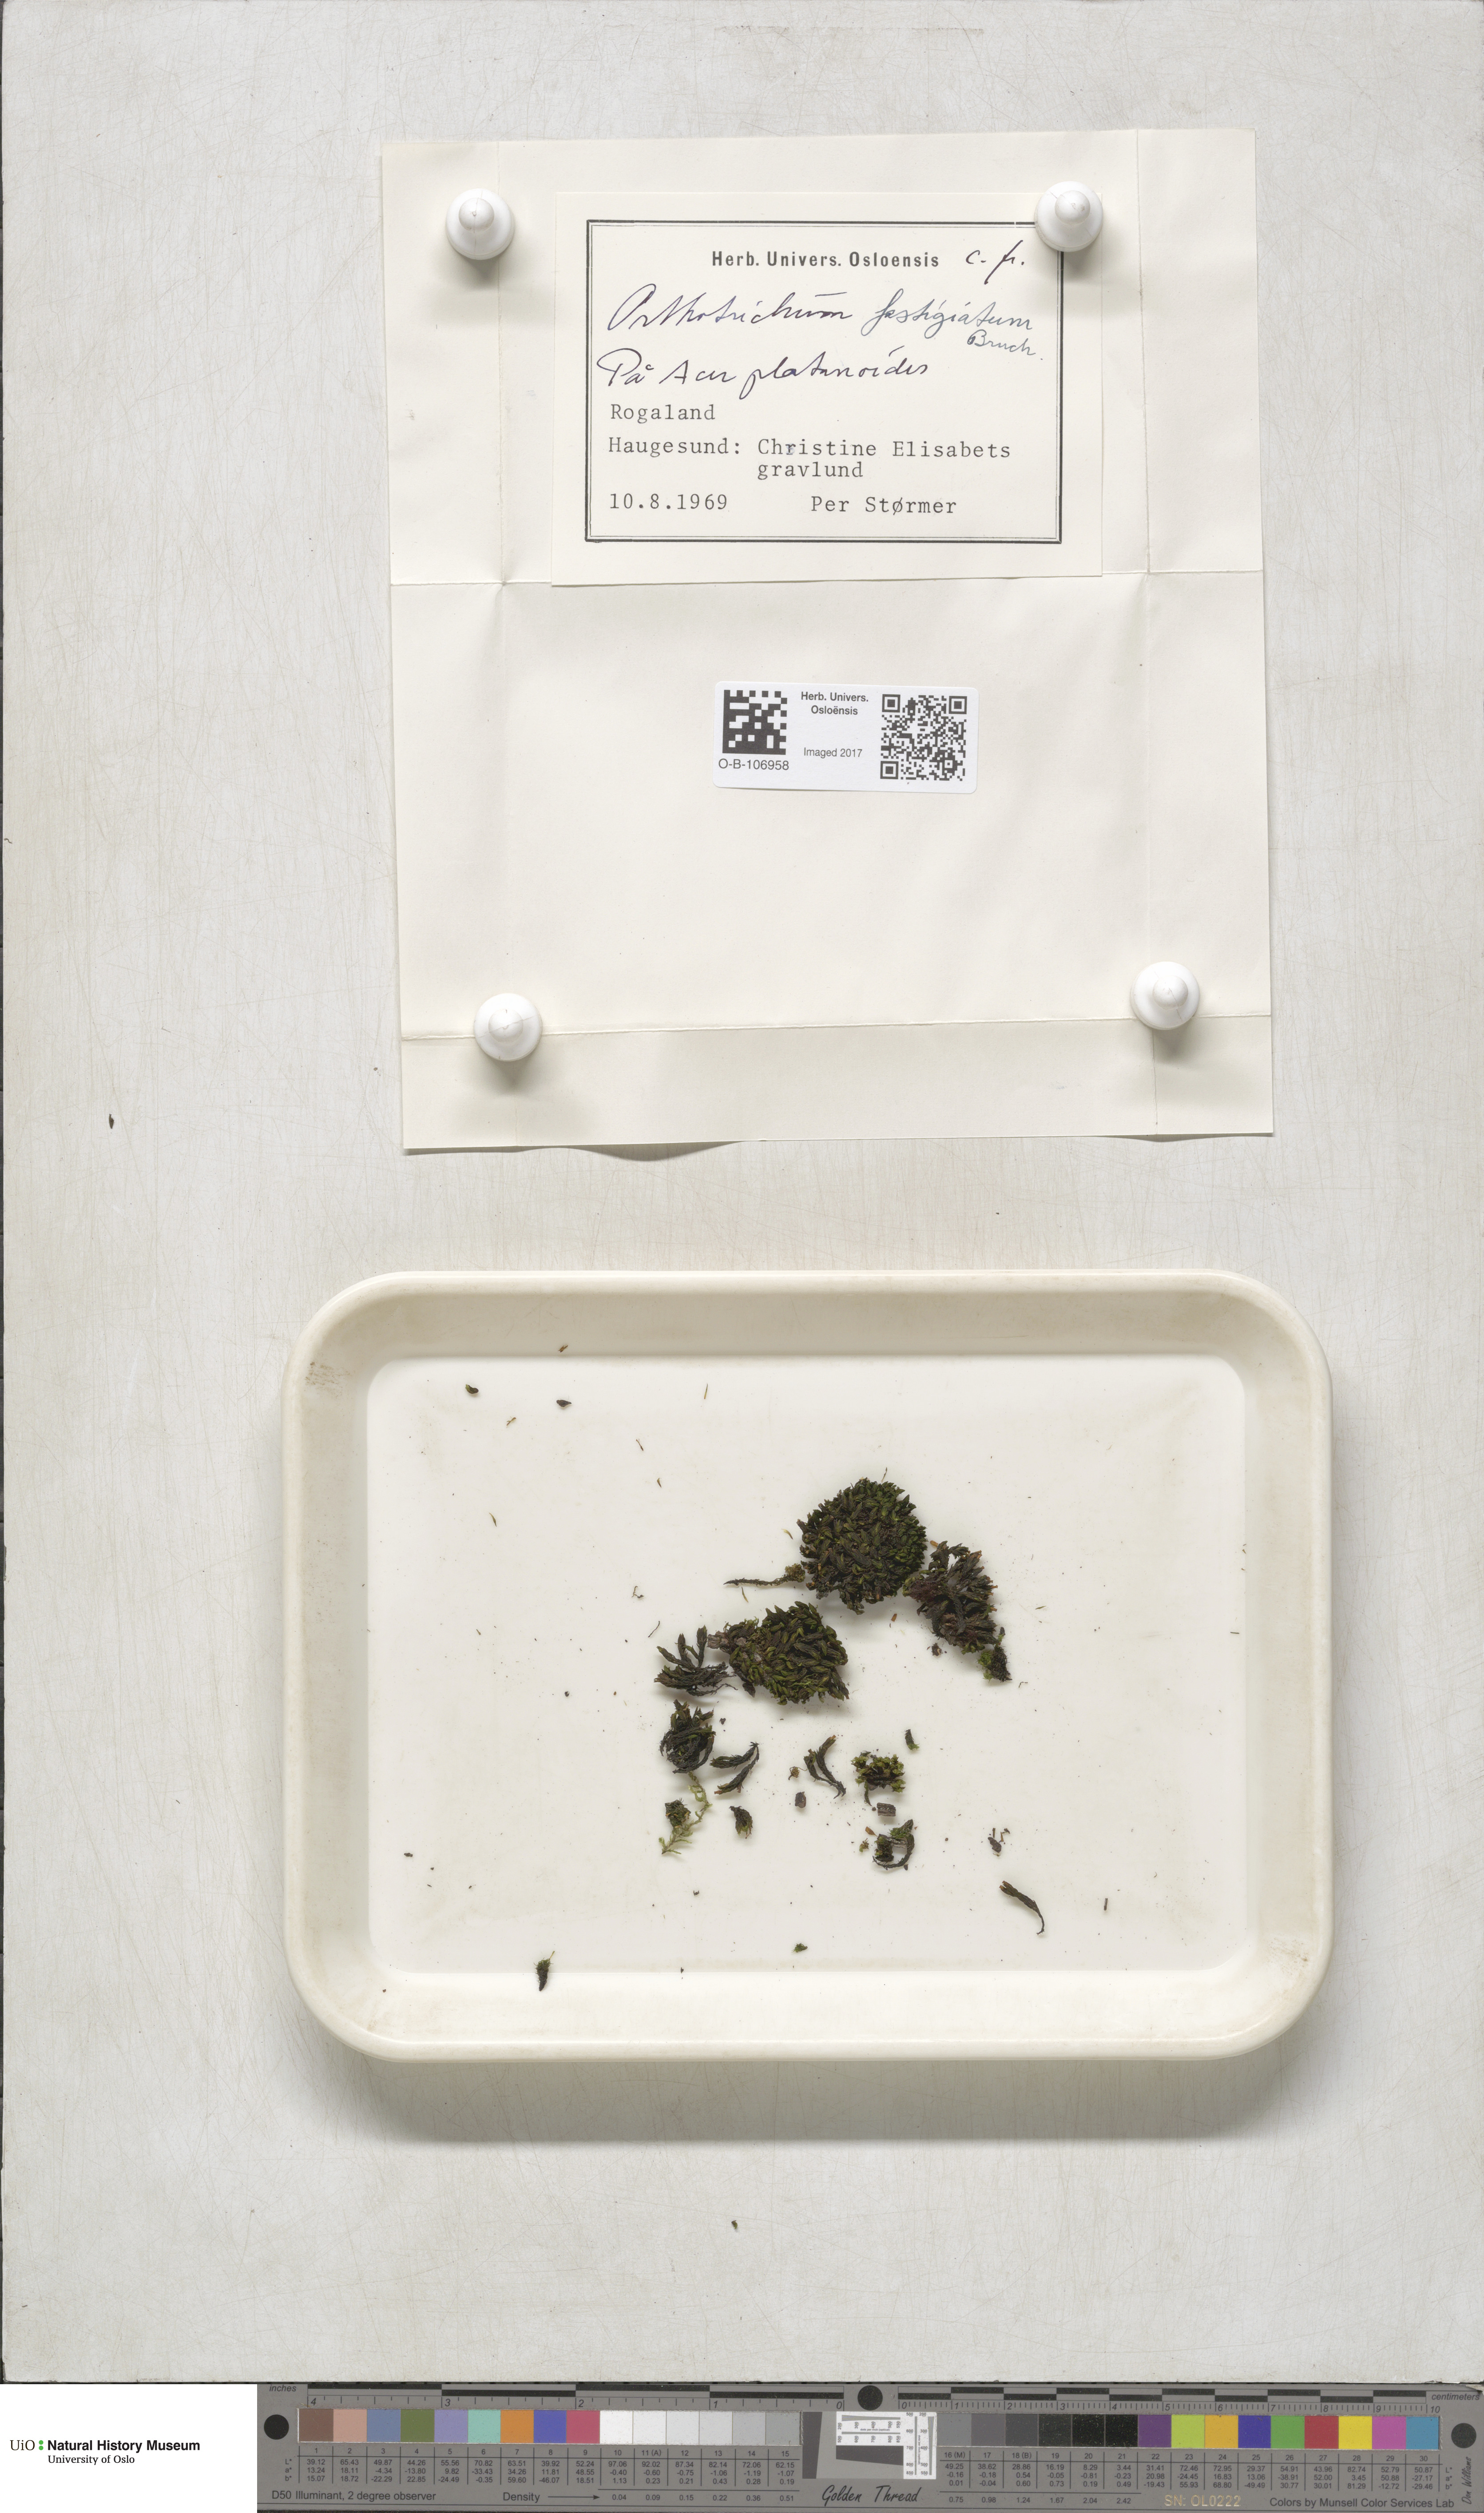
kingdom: Plantae
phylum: Bryophyta
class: Bryopsida
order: Orthotrichales
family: Orthotrichaceae
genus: Lewinskya
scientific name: Lewinskya affinis
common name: Wood bristle-moss
